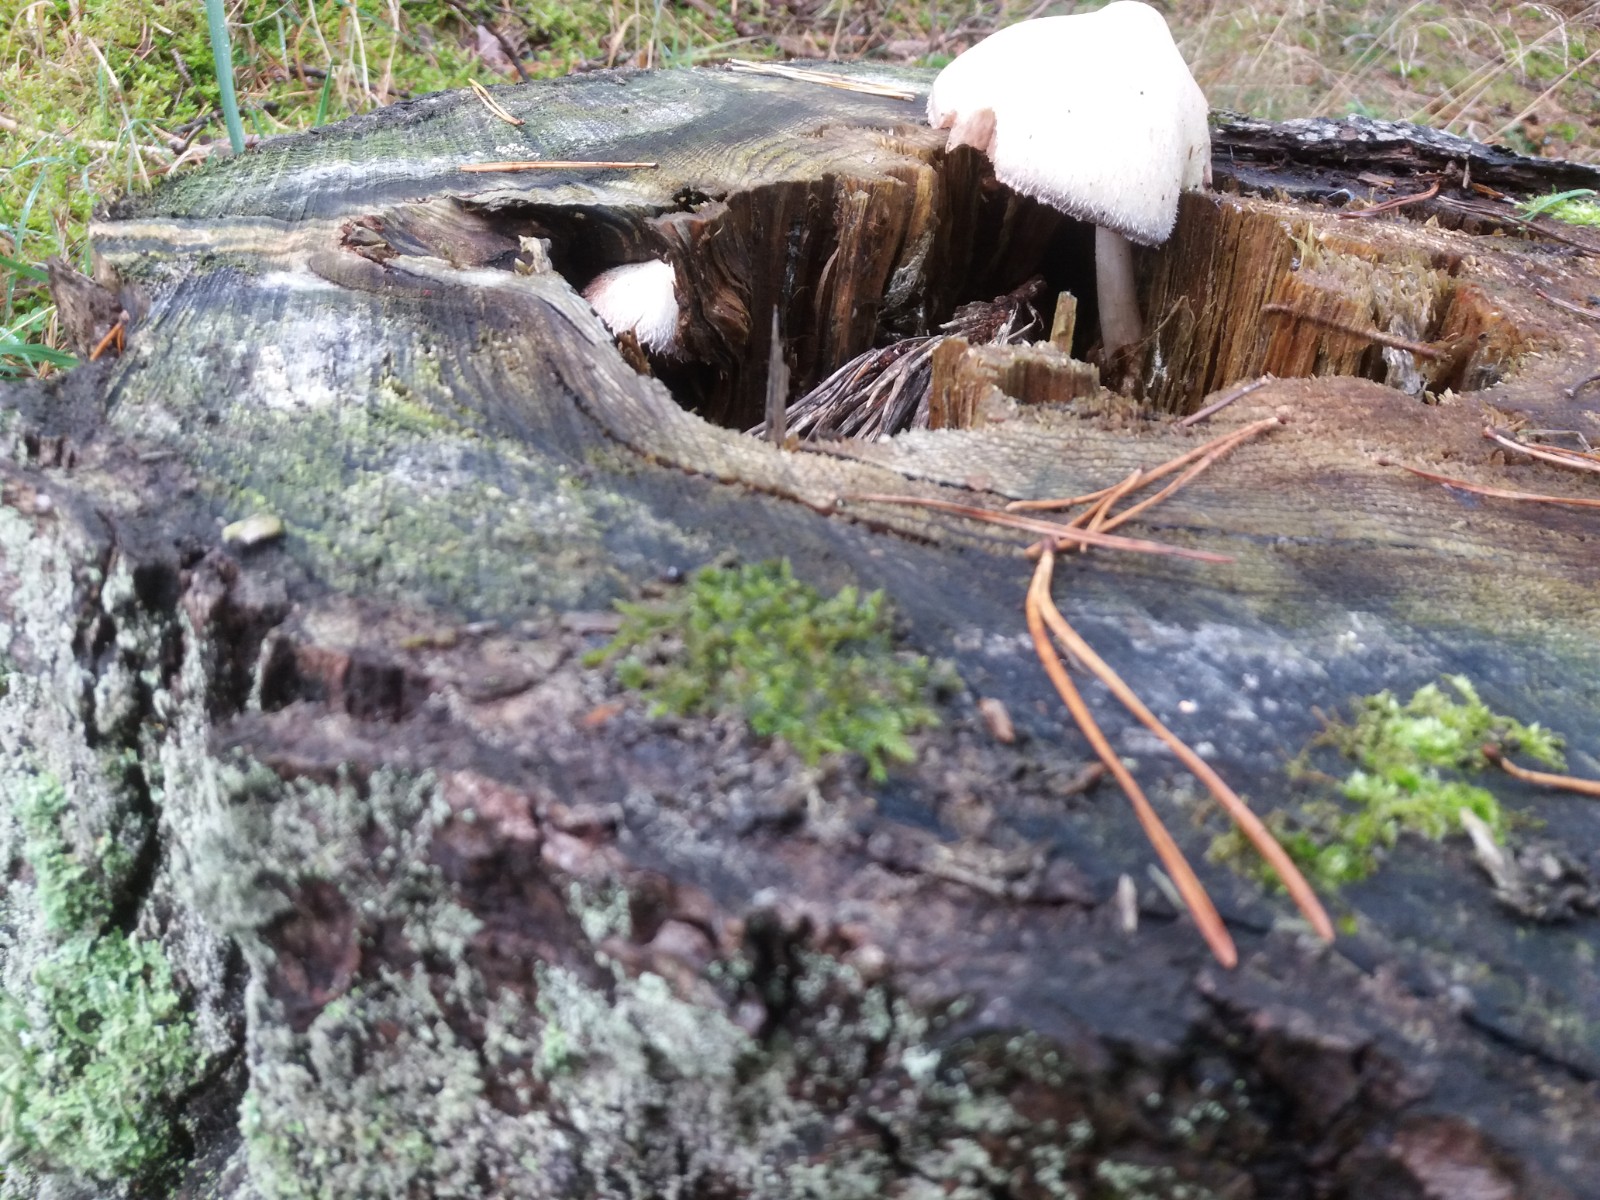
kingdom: Fungi
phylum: Basidiomycota
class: Agaricomycetes
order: Agaricales
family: Pluteaceae
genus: Volvariella
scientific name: Volvariella bombycina
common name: silkehåret posesvamp
